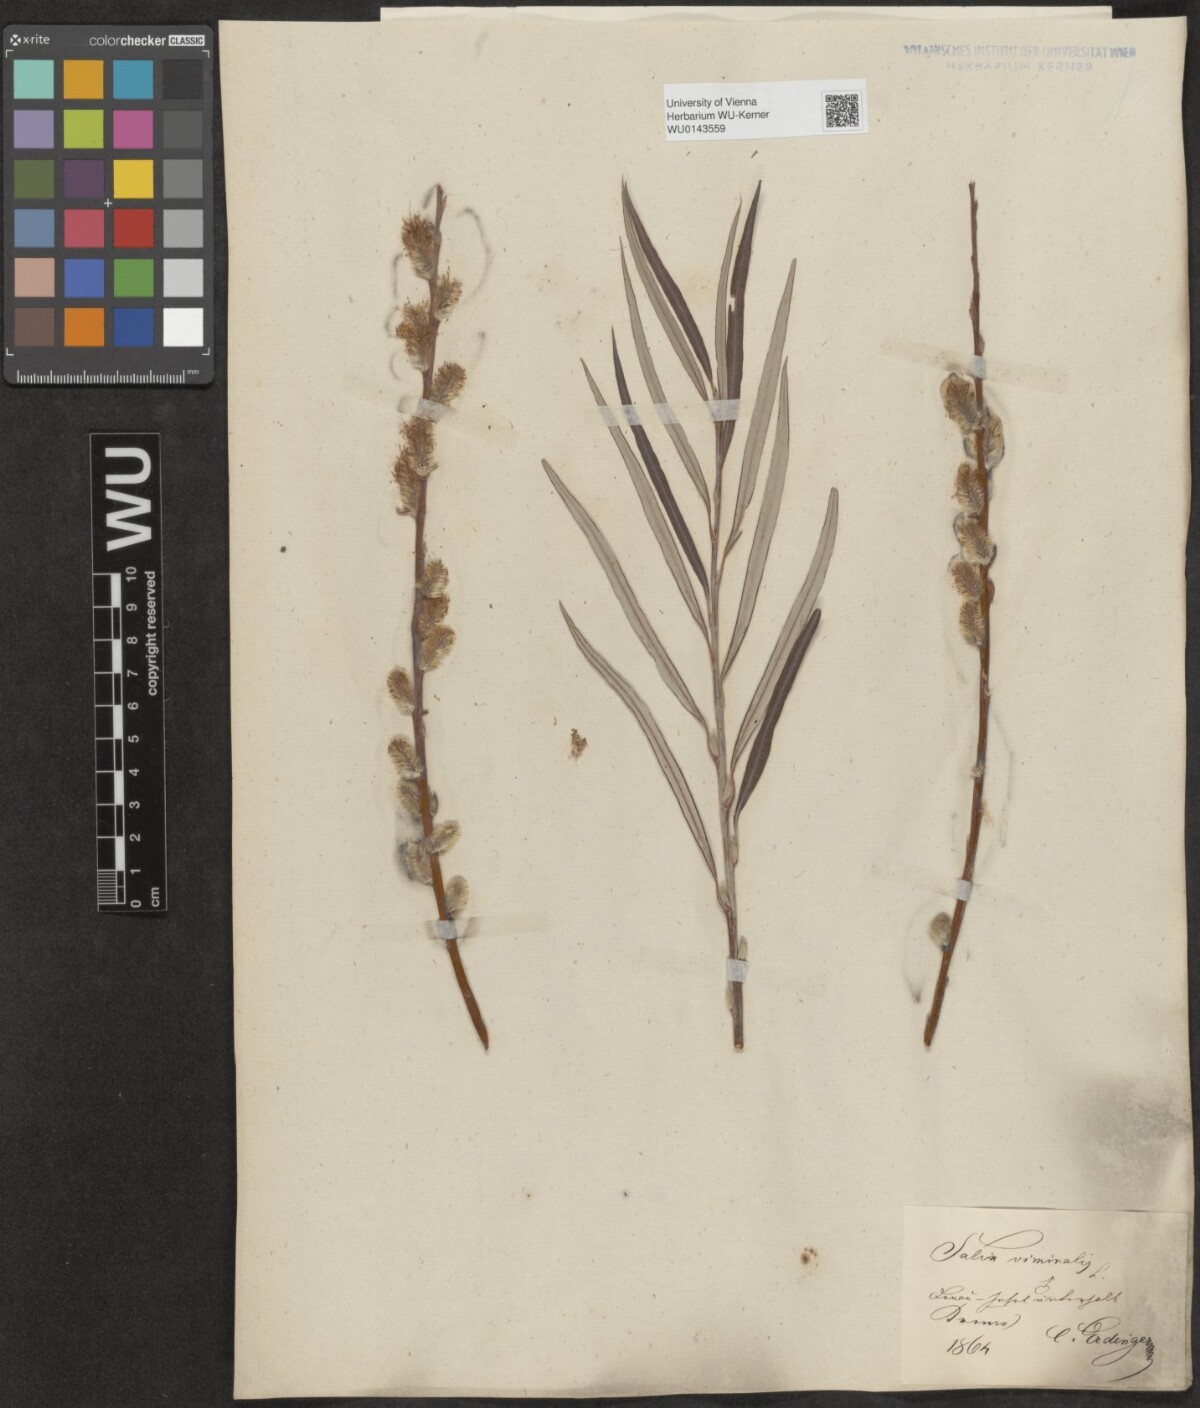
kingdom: Plantae
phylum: Tracheophyta
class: Magnoliopsida
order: Malpighiales
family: Salicaceae
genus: Salix
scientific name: Salix viminalis
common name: Osier
